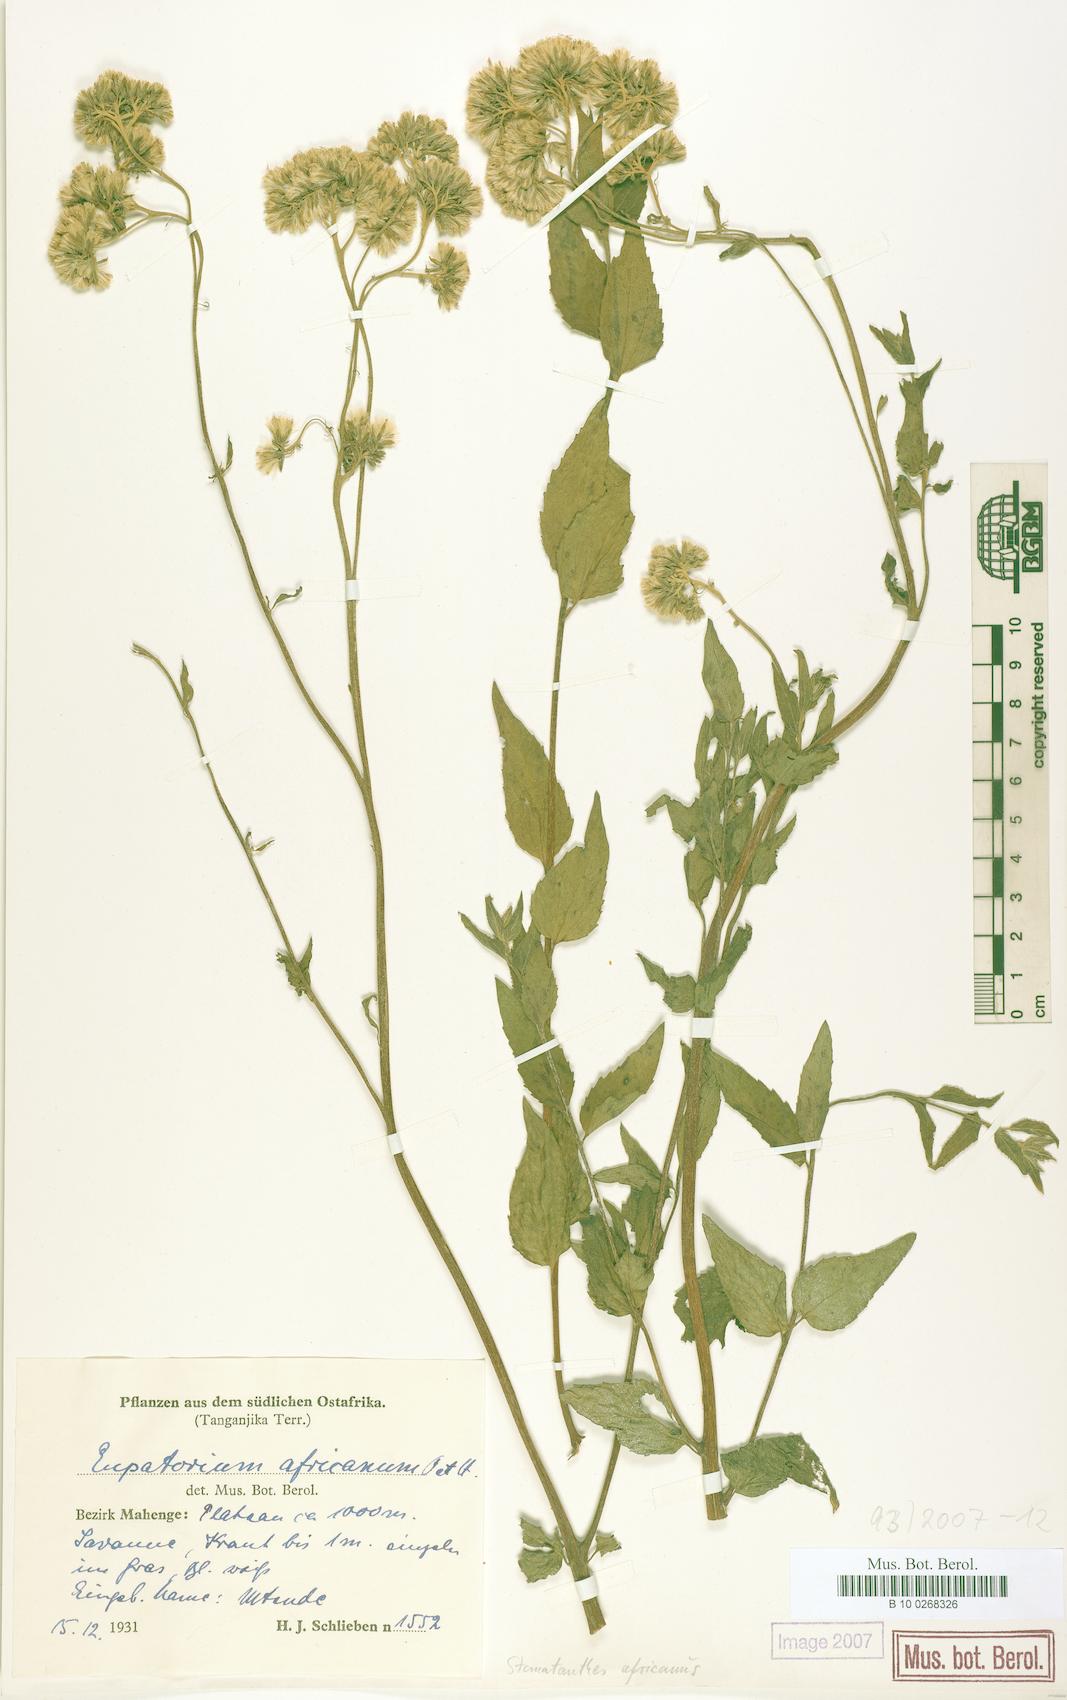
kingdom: Plantae
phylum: Tracheophyta
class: Magnoliopsida
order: Asterales
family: Asteraceae
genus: Stomatanthes
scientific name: Stomatanthes africanus
